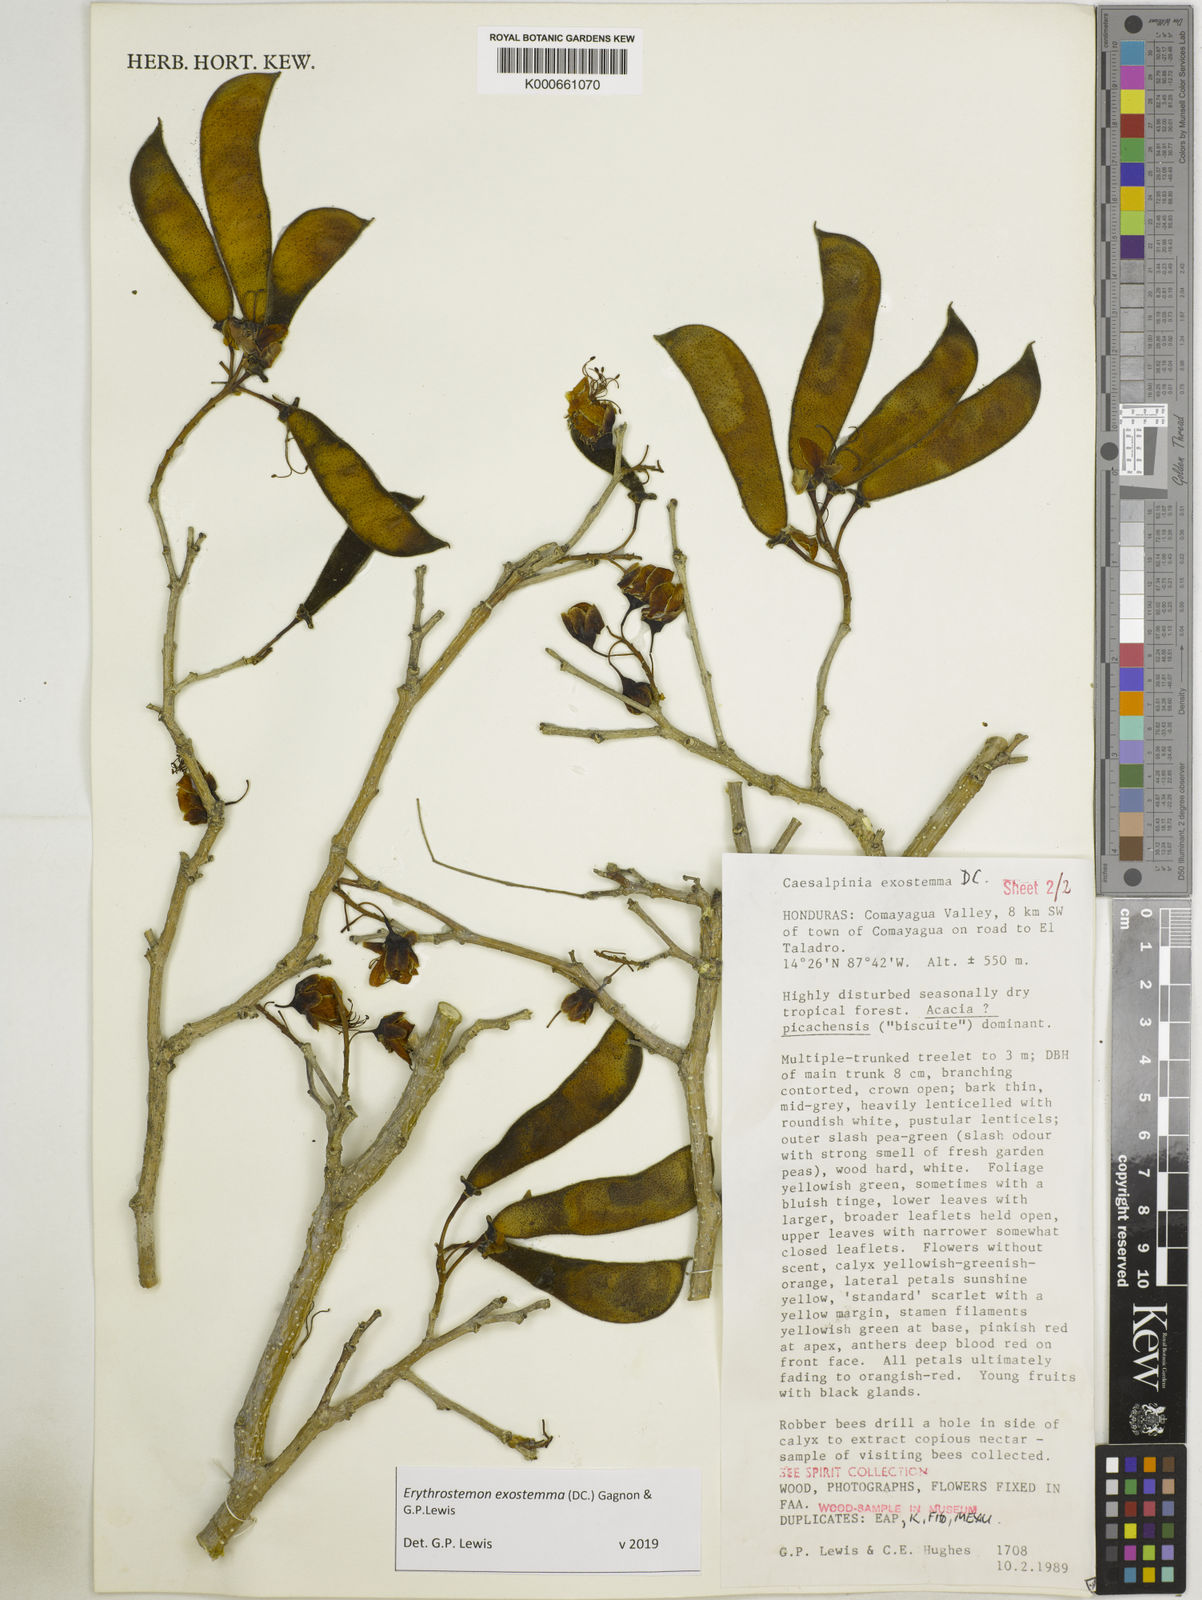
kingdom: Plantae
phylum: Tracheophyta
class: Magnoliopsida
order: Fabales
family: Fabaceae
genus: Erythrostemon
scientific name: Erythrostemon exostemma
